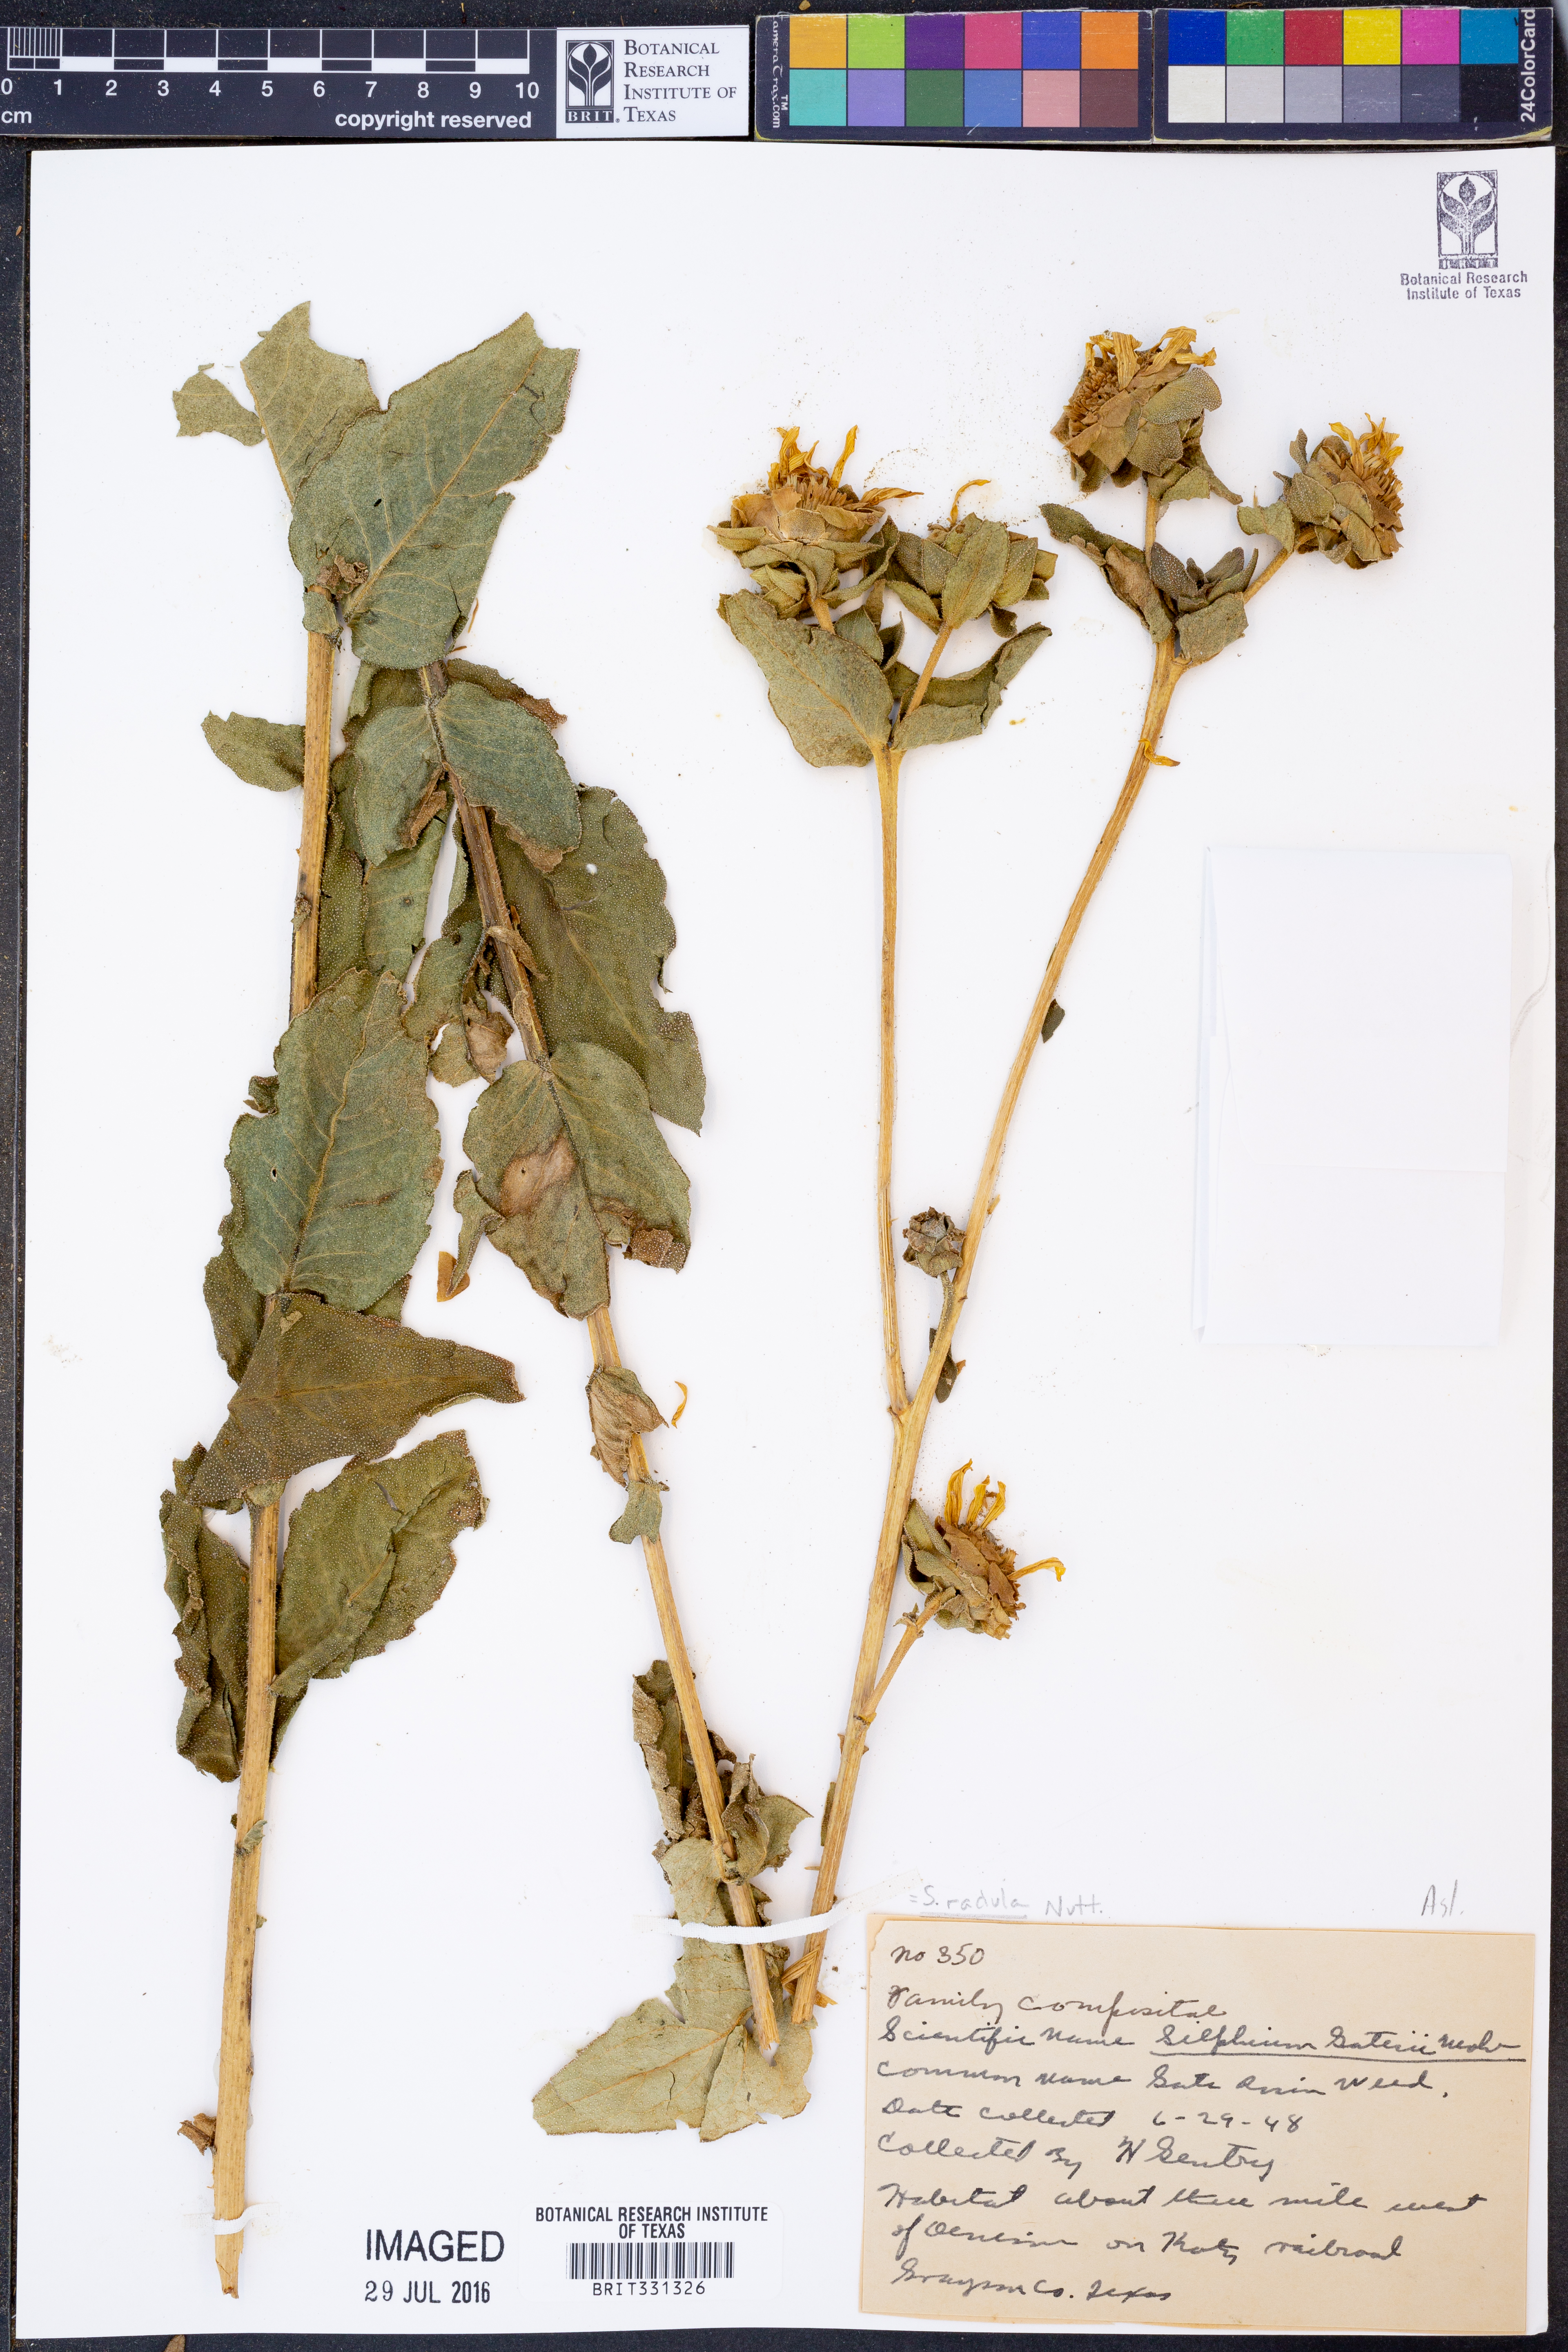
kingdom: Plantae
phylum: Tracheophyta
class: Magnoliopsida
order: Asterales
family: Asteraceae
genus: Silphium
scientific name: Silphium radula
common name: Roughleaf rosinweed
